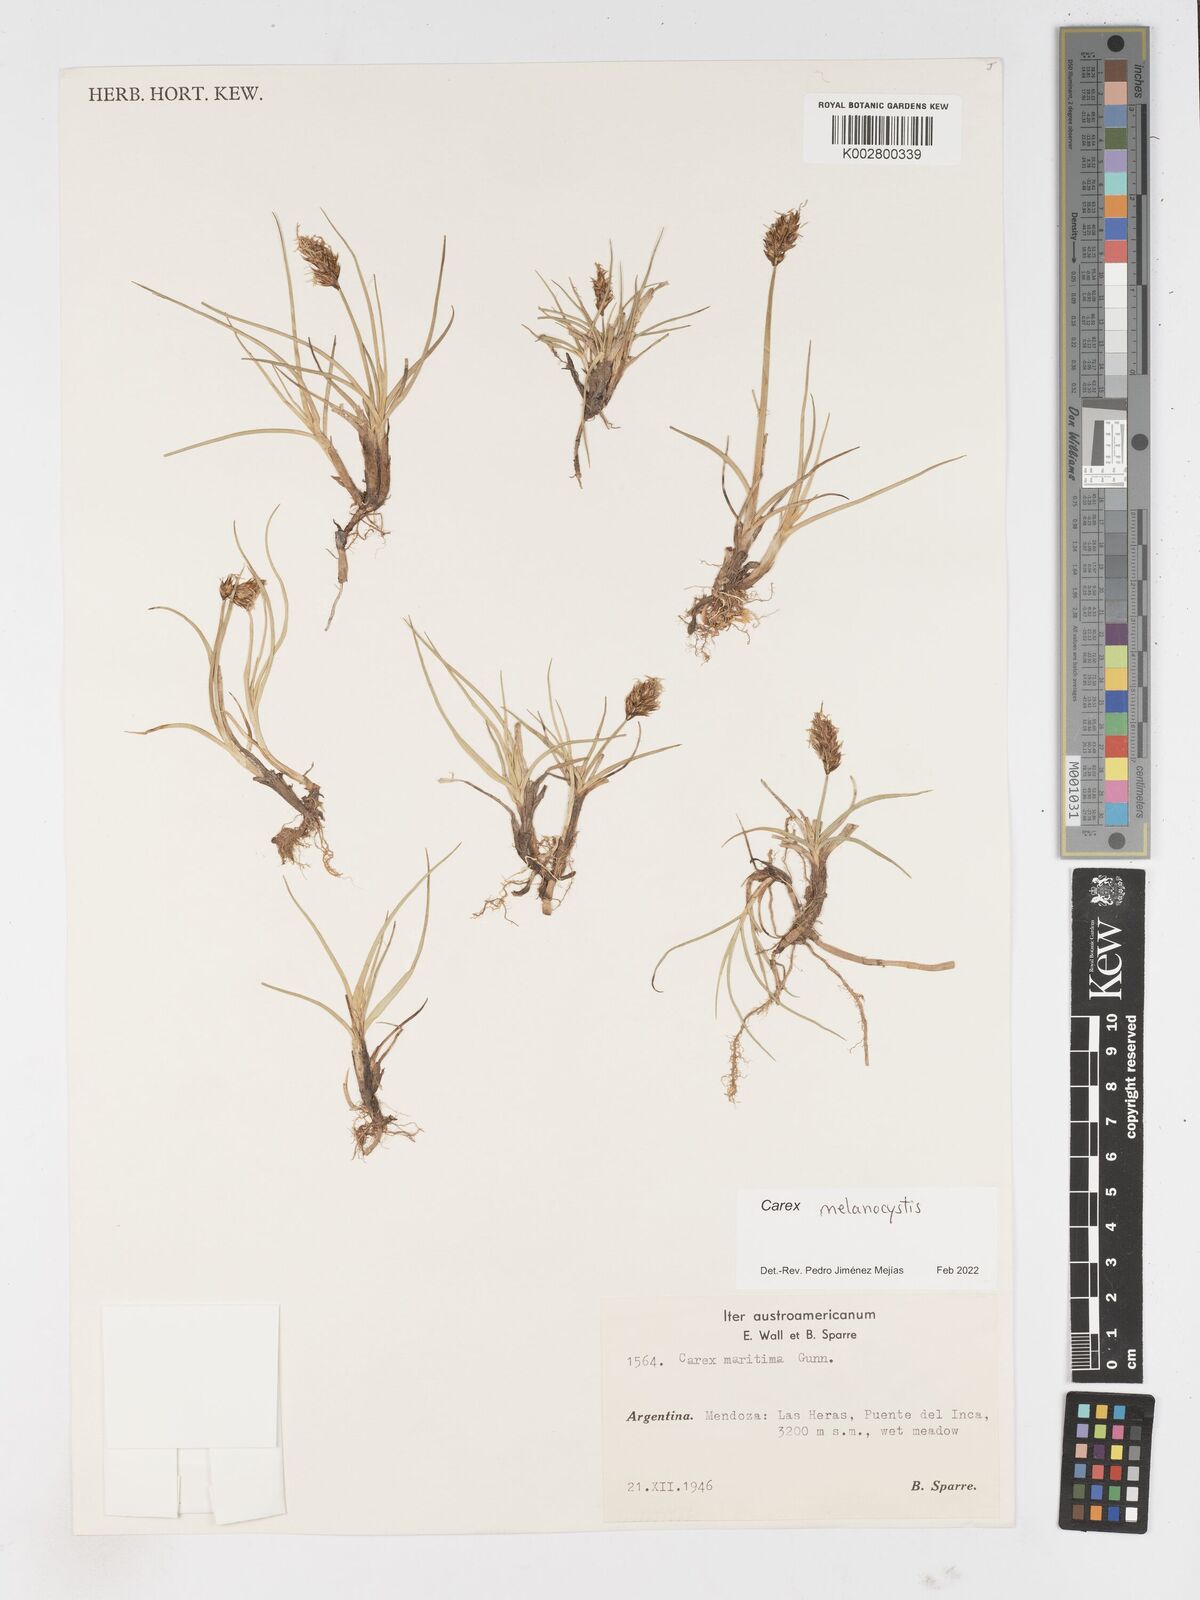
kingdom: Plantae
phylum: Tracheophyta
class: Liliopsida
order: Poales
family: Cyperaceae
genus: Carex
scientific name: Carex melanocystis
